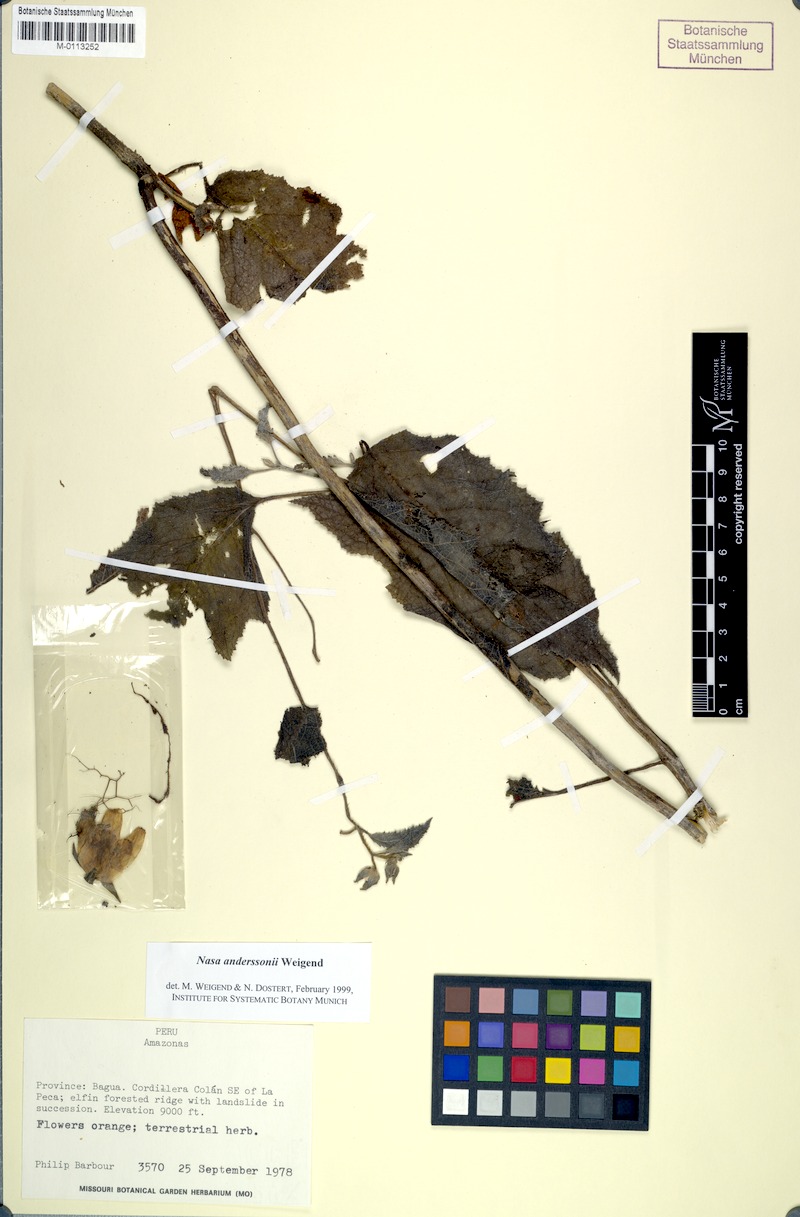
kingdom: Plantae
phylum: Tracheophyta
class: Magnoliopsida
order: Cornales
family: Loasaceae
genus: Nasa
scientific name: Nasa anderssonii
